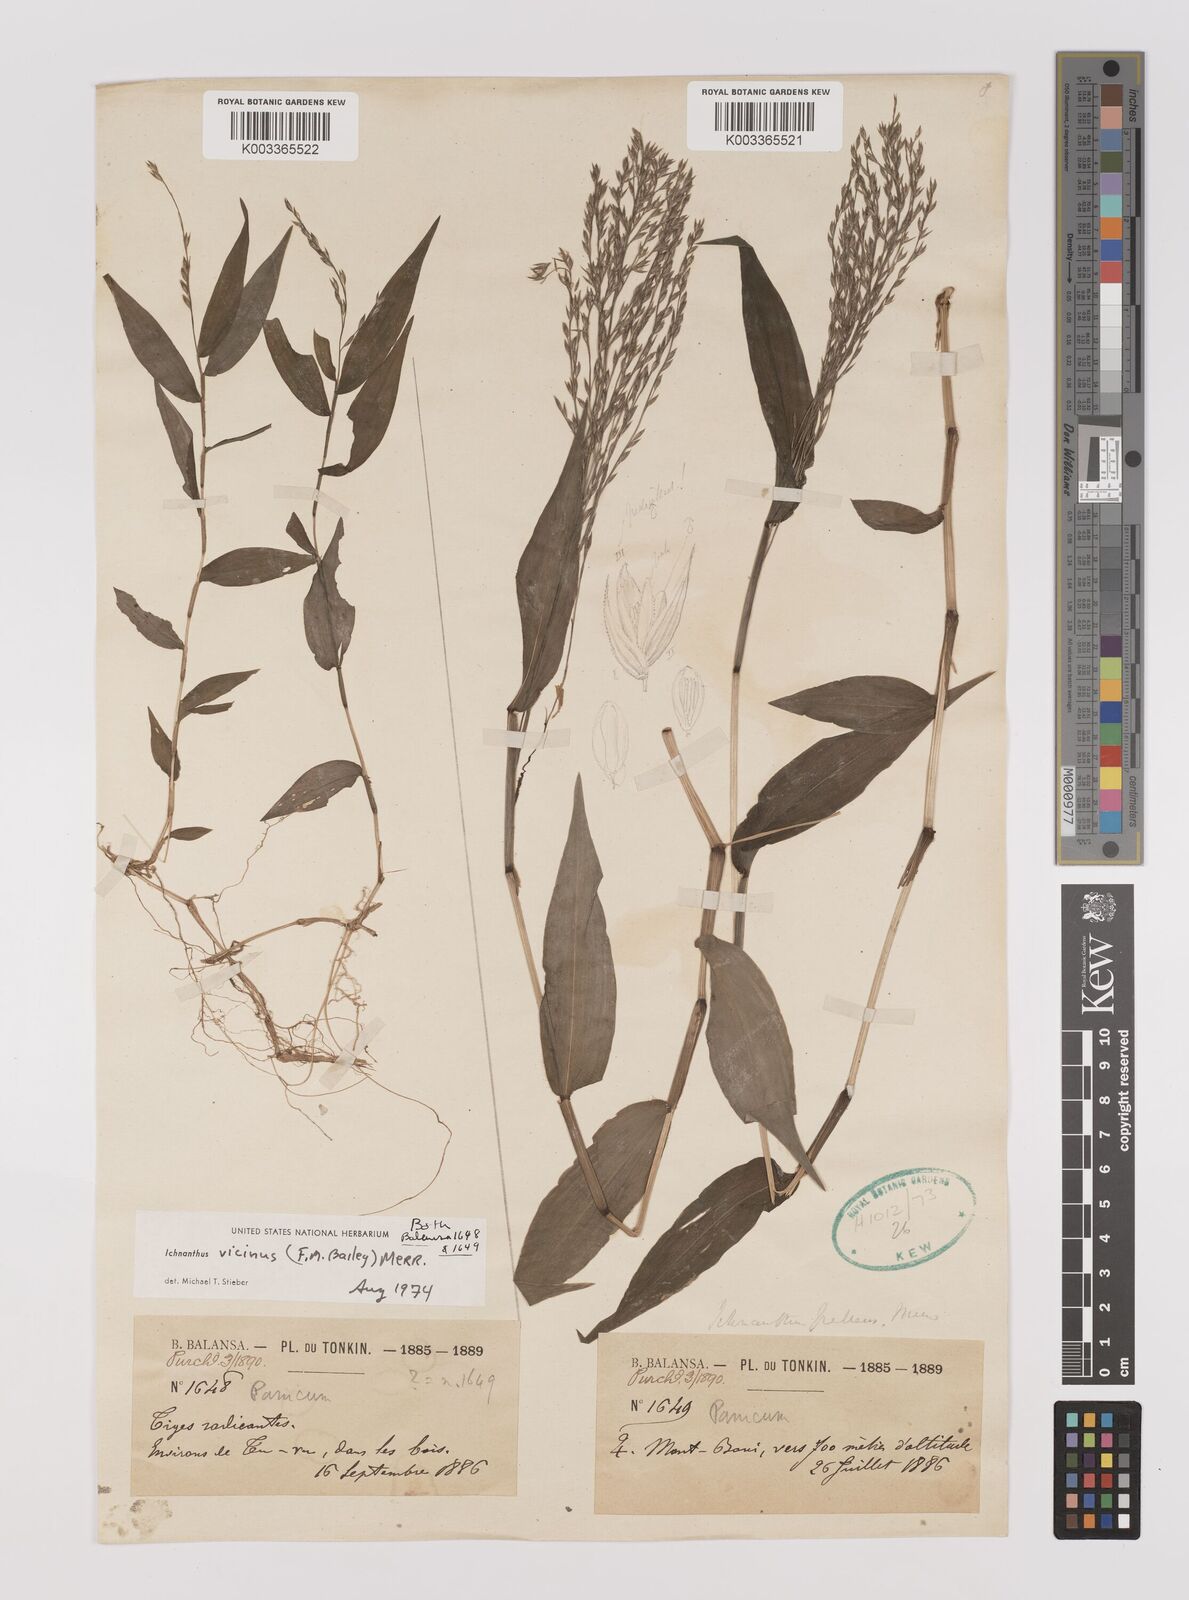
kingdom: Plantae
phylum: Tracheophyta
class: Liliopsida
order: Poales
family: Poaceae
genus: Ichnanthus
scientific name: Ichnanthus pallens
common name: Water grass
